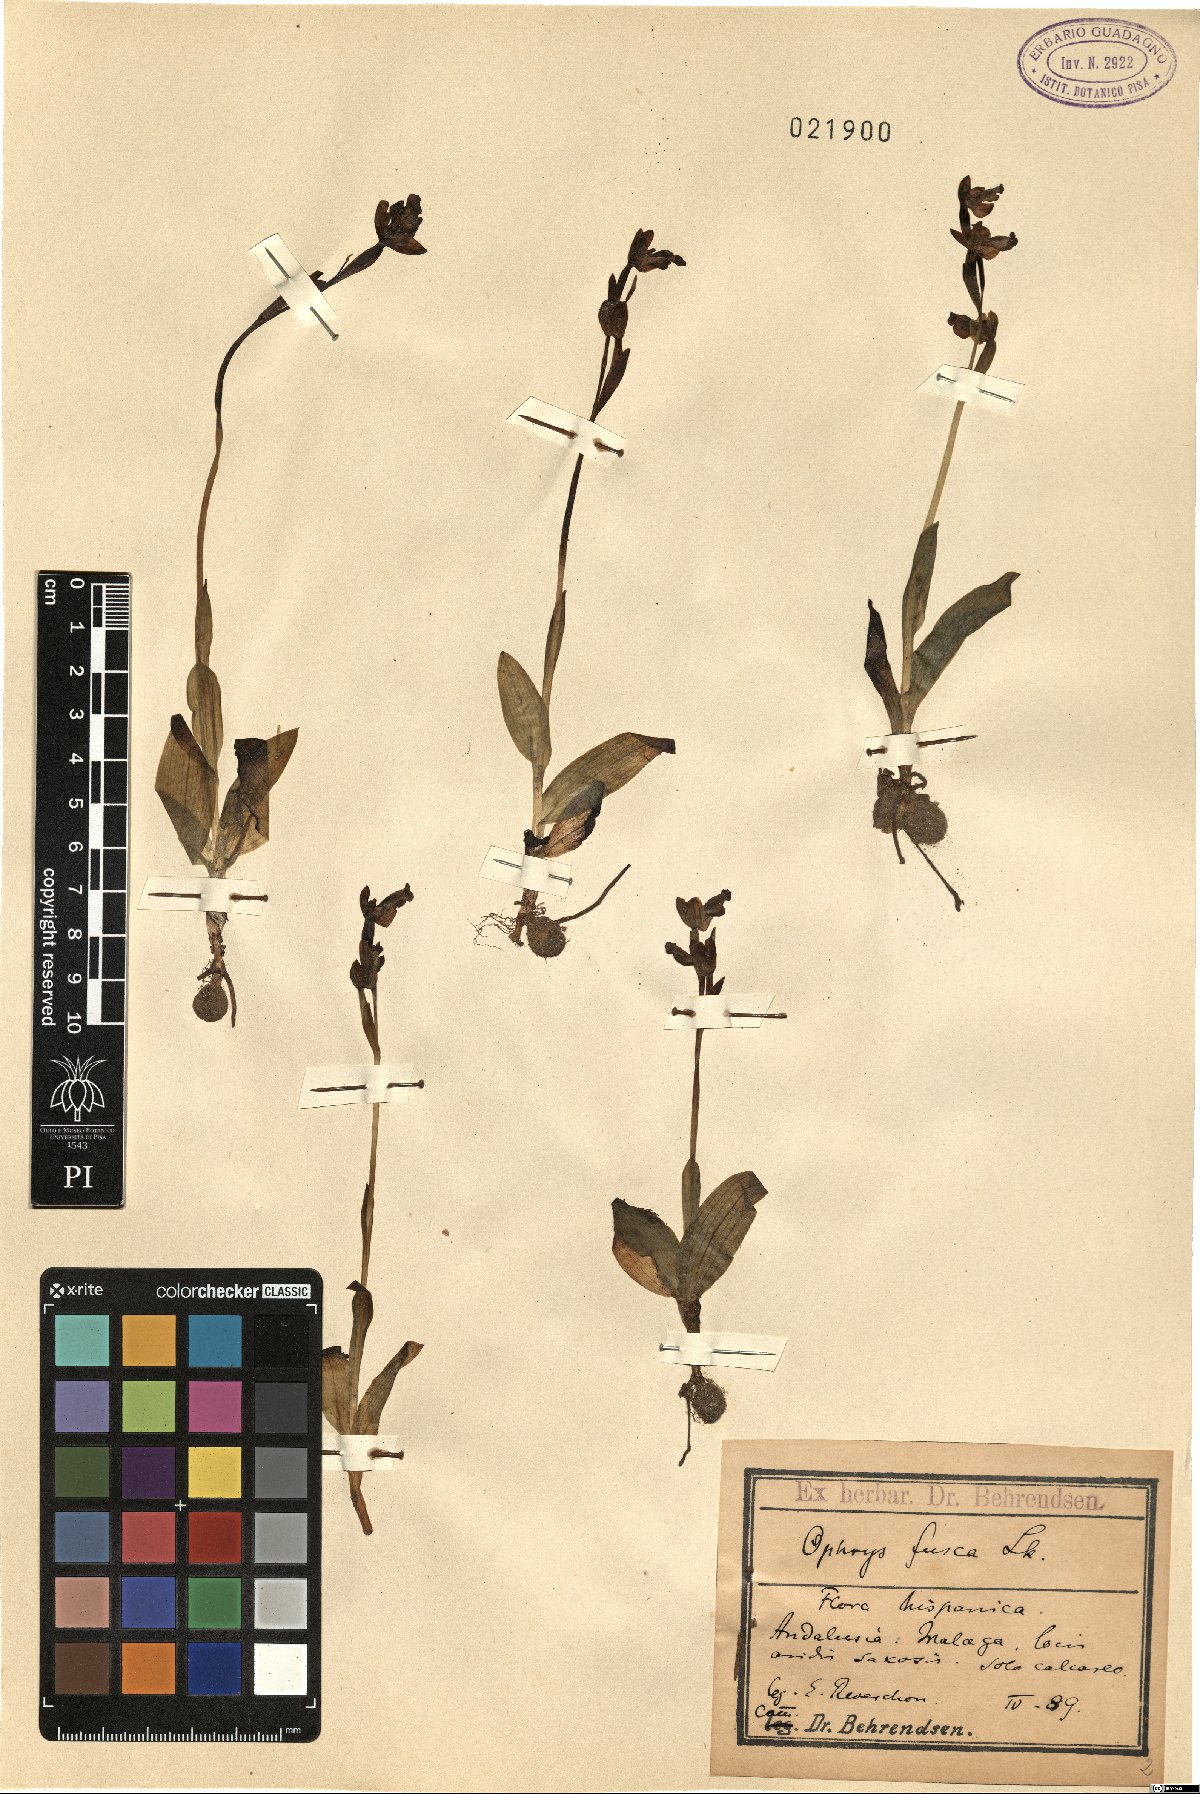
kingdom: Plantae
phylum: Tracheophyta
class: Liliopsida
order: Asparagales
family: Orchidaceae
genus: Ophrys
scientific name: Ophrys fusca
